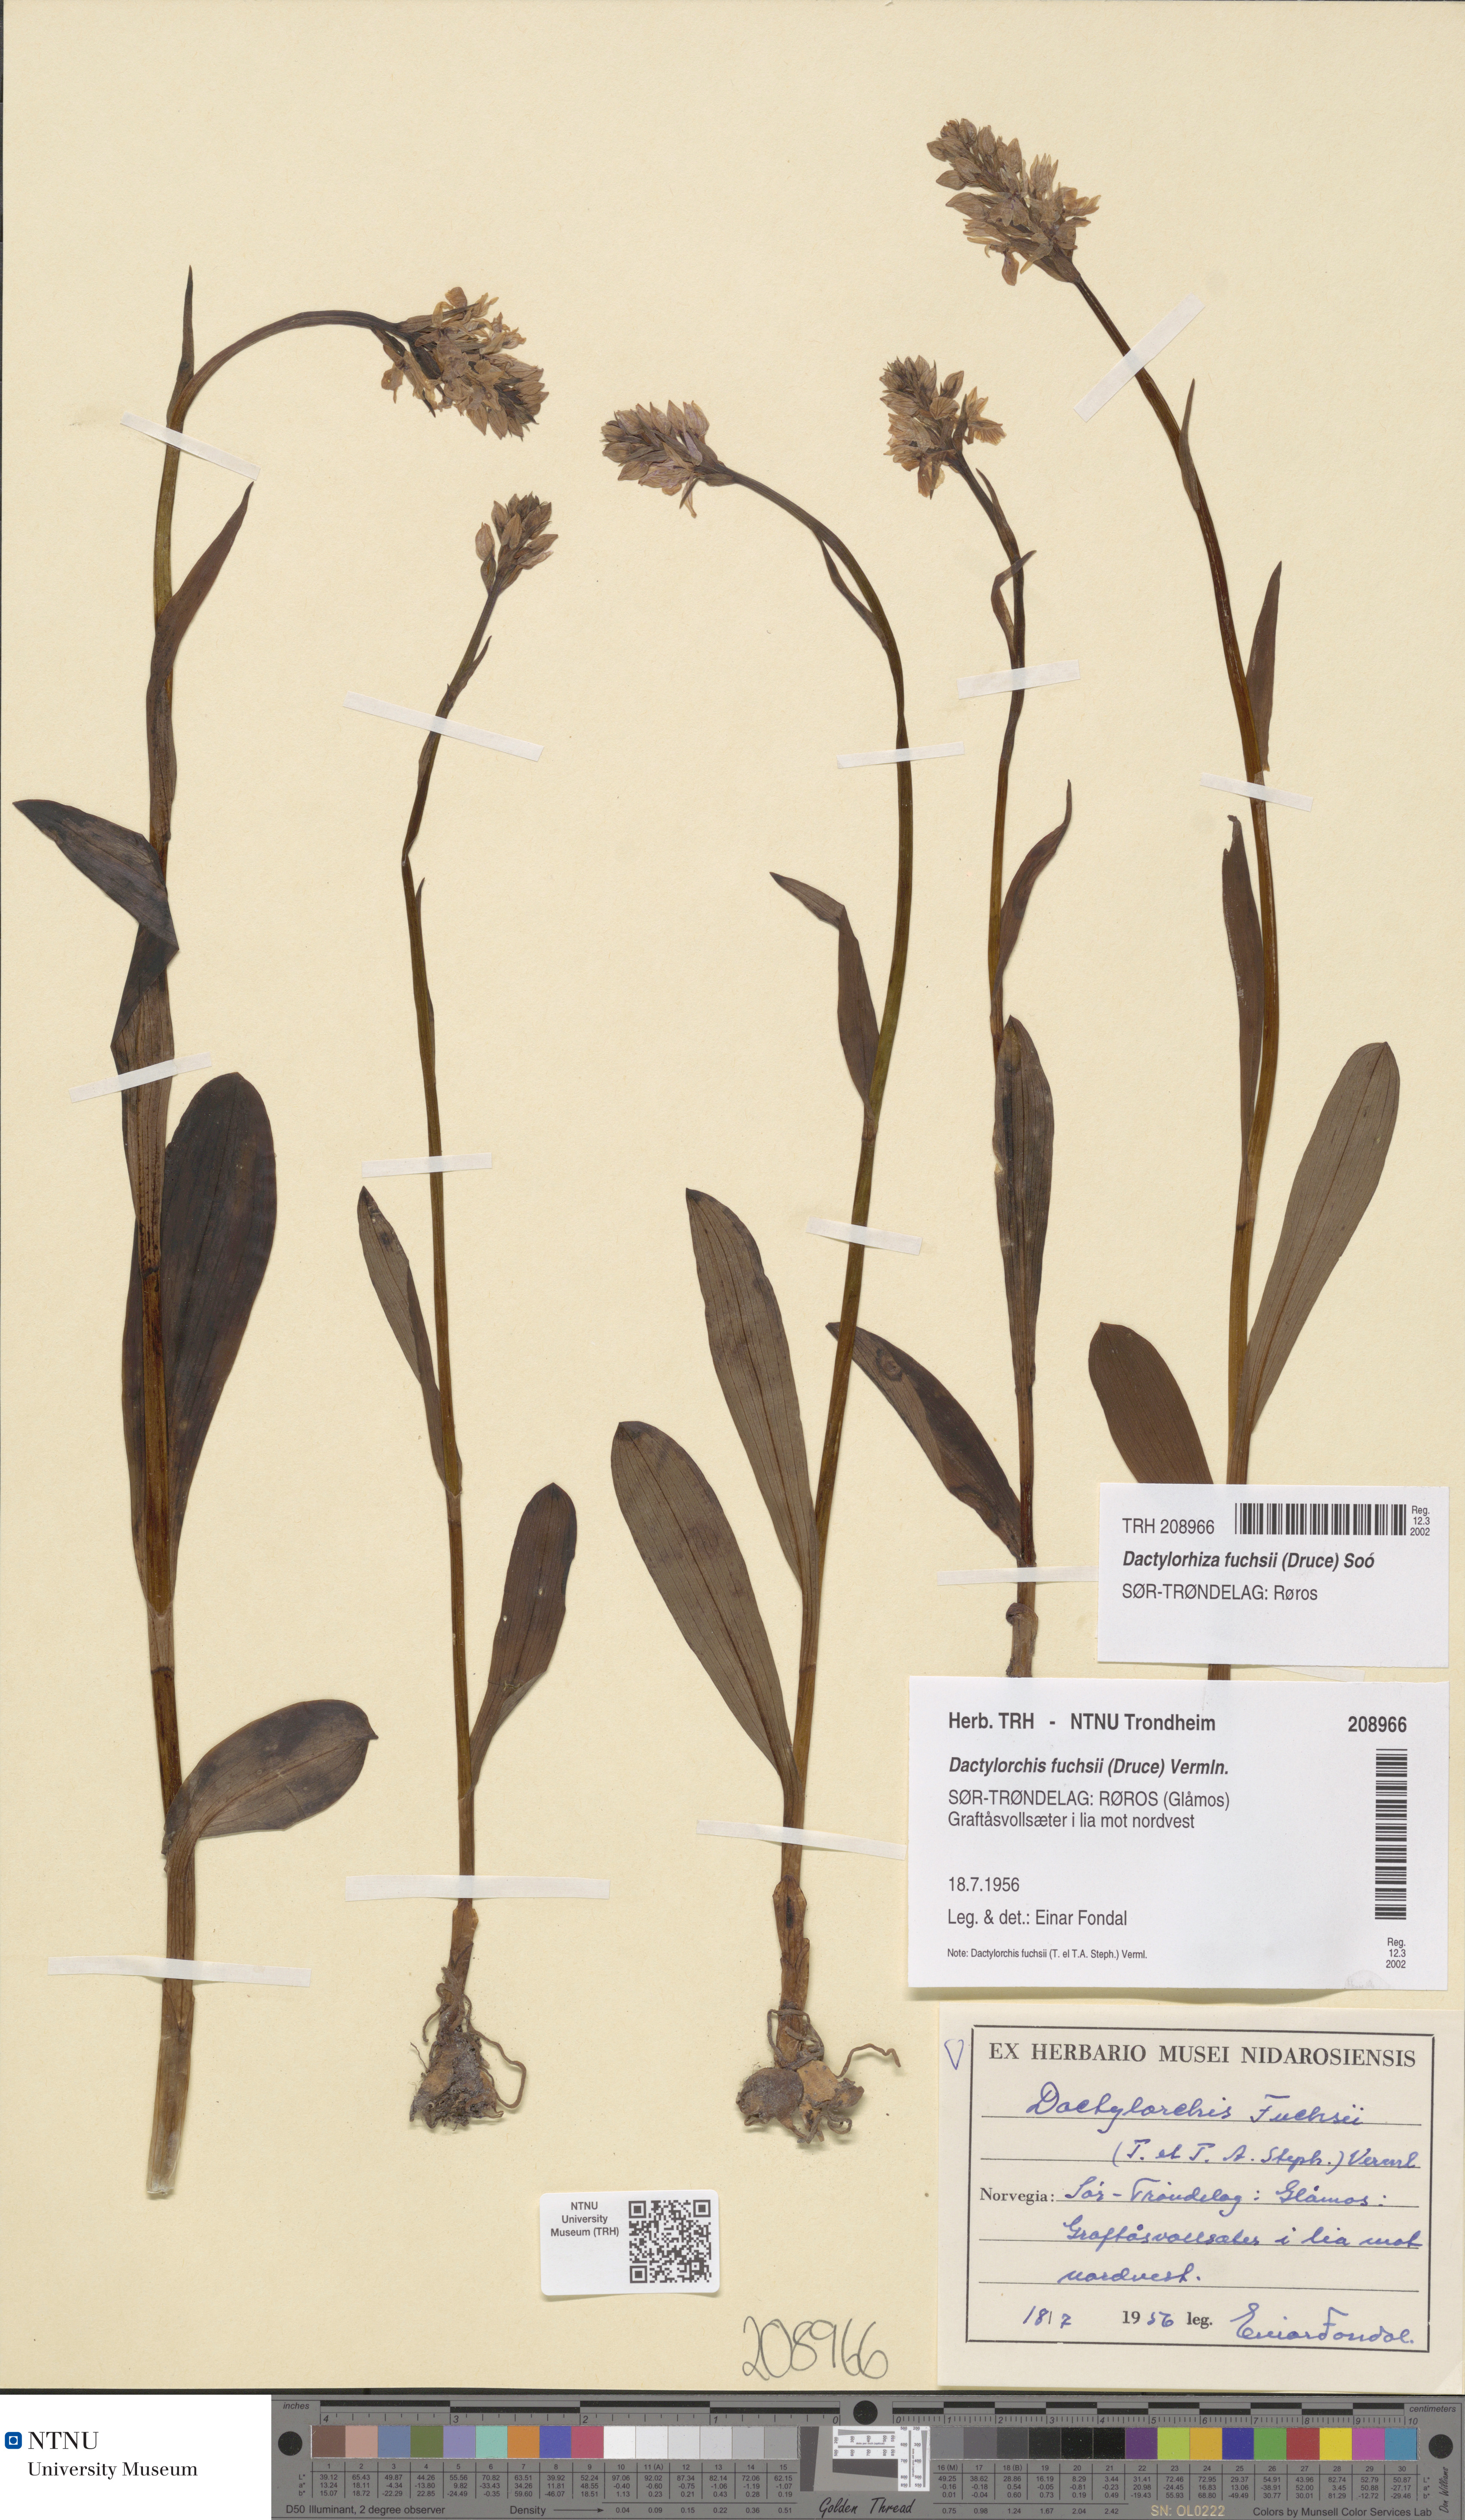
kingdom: Plantae
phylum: Tracheophyta
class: Liliopsida
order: Asparagales
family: Orchidaceae
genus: Dactylorhiza
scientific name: Dactylorhiza maculata
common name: Heath spotted-orchid
